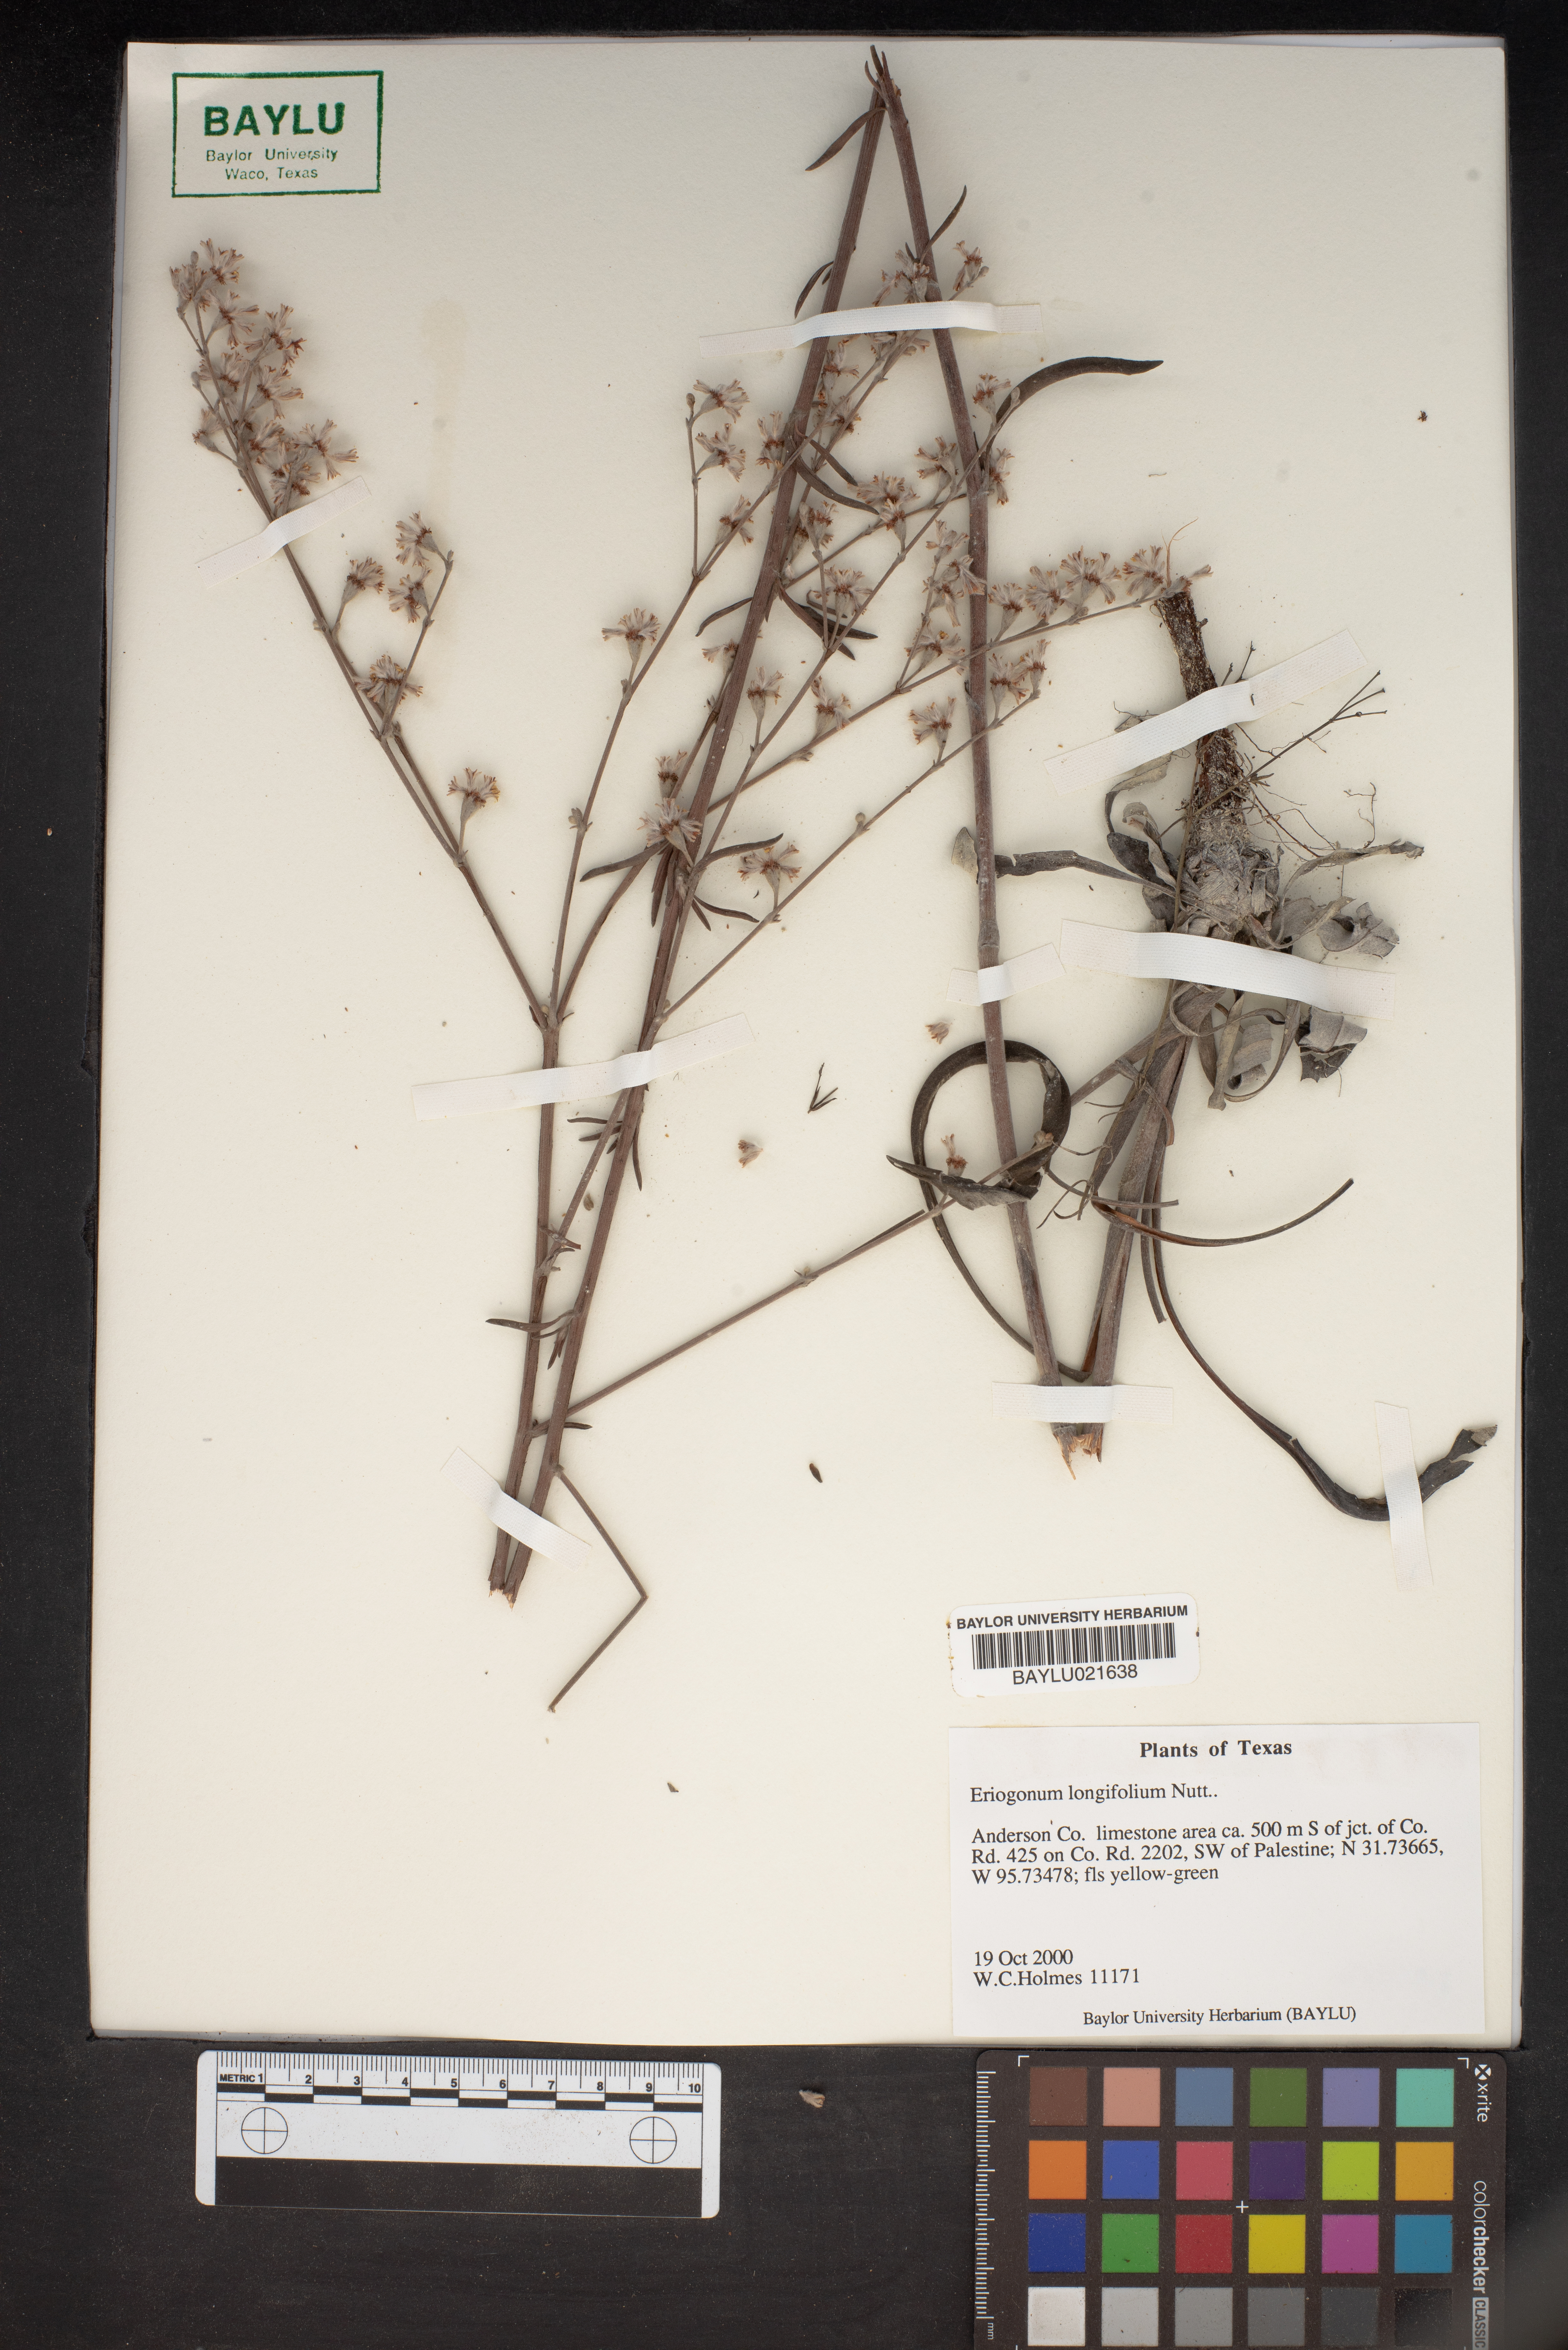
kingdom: Plantae
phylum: Tracheophyta
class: Magnoliopsida
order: Caryophyllales
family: Polygonaceae
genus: Eriogonum
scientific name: Eriogonum longifolium
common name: Longleaf wild buckwheat
